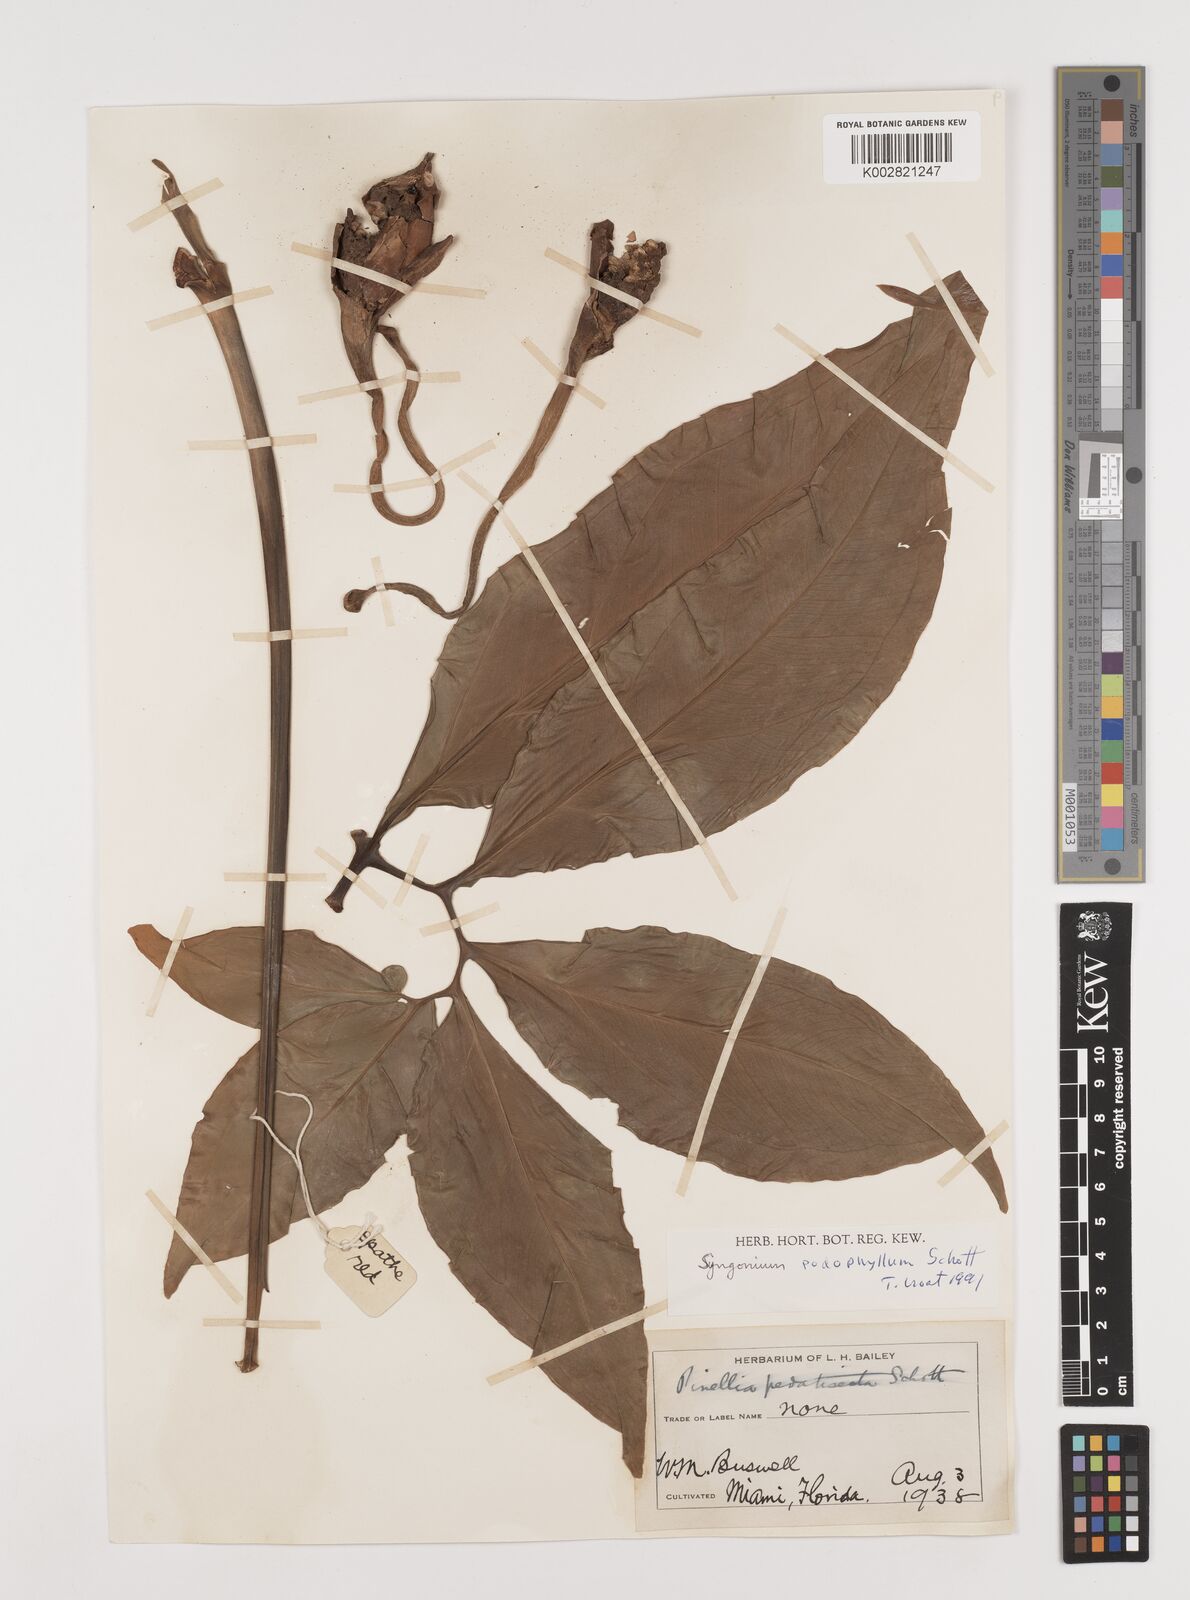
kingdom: Plantae
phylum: Tracheophyta
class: Liliopsida
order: Alismatales
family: Araceae
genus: Syngonium
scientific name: Syngonium podophyllum
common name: American evergreen
